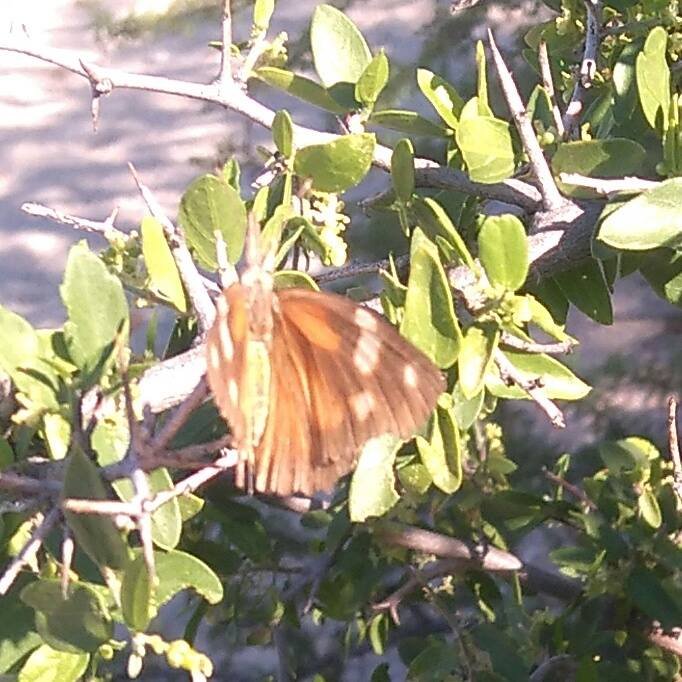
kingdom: Animalia
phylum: Arthropoda
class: Insecta
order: Lepidoptera
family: Nymphalidae
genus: Libytheana
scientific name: Libytheana carinenta
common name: American Snout
